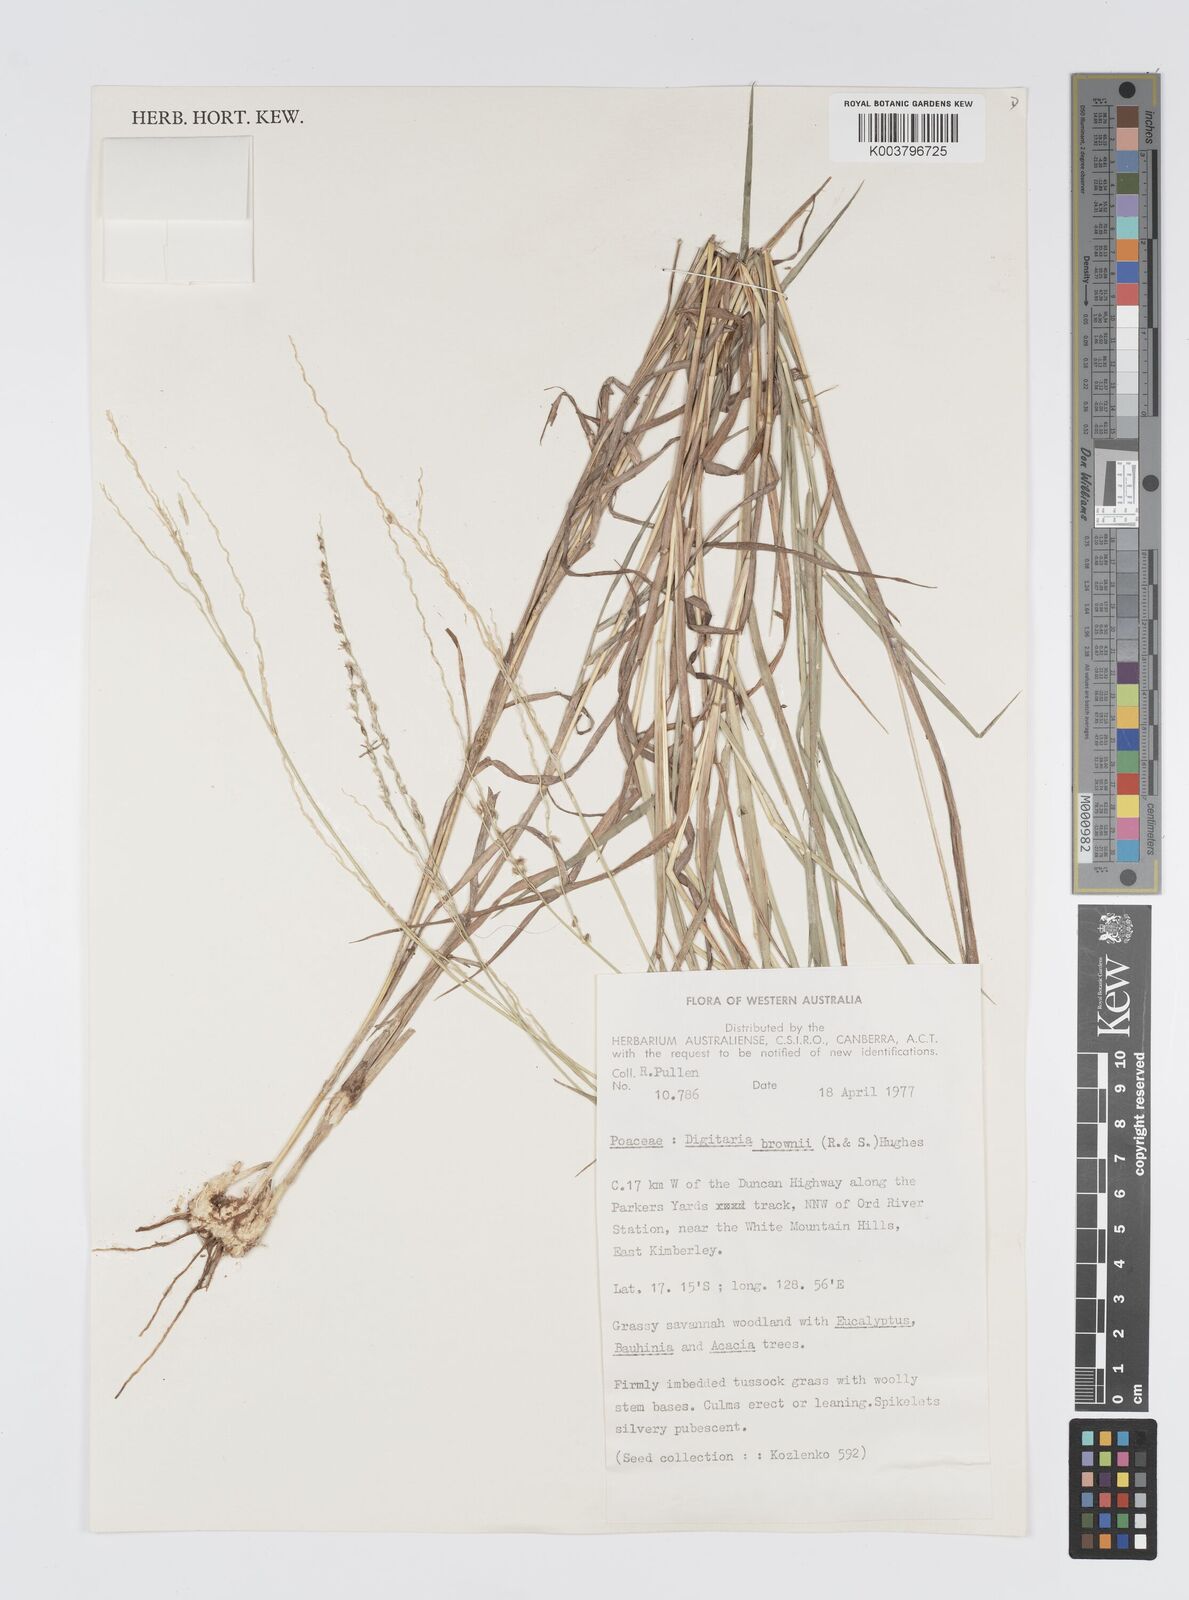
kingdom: Plantae
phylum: Tracheophyta
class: Liliopsida
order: Poales
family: Poaceae
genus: Digitaria
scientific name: Digitaria brownii
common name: Cotton grass
